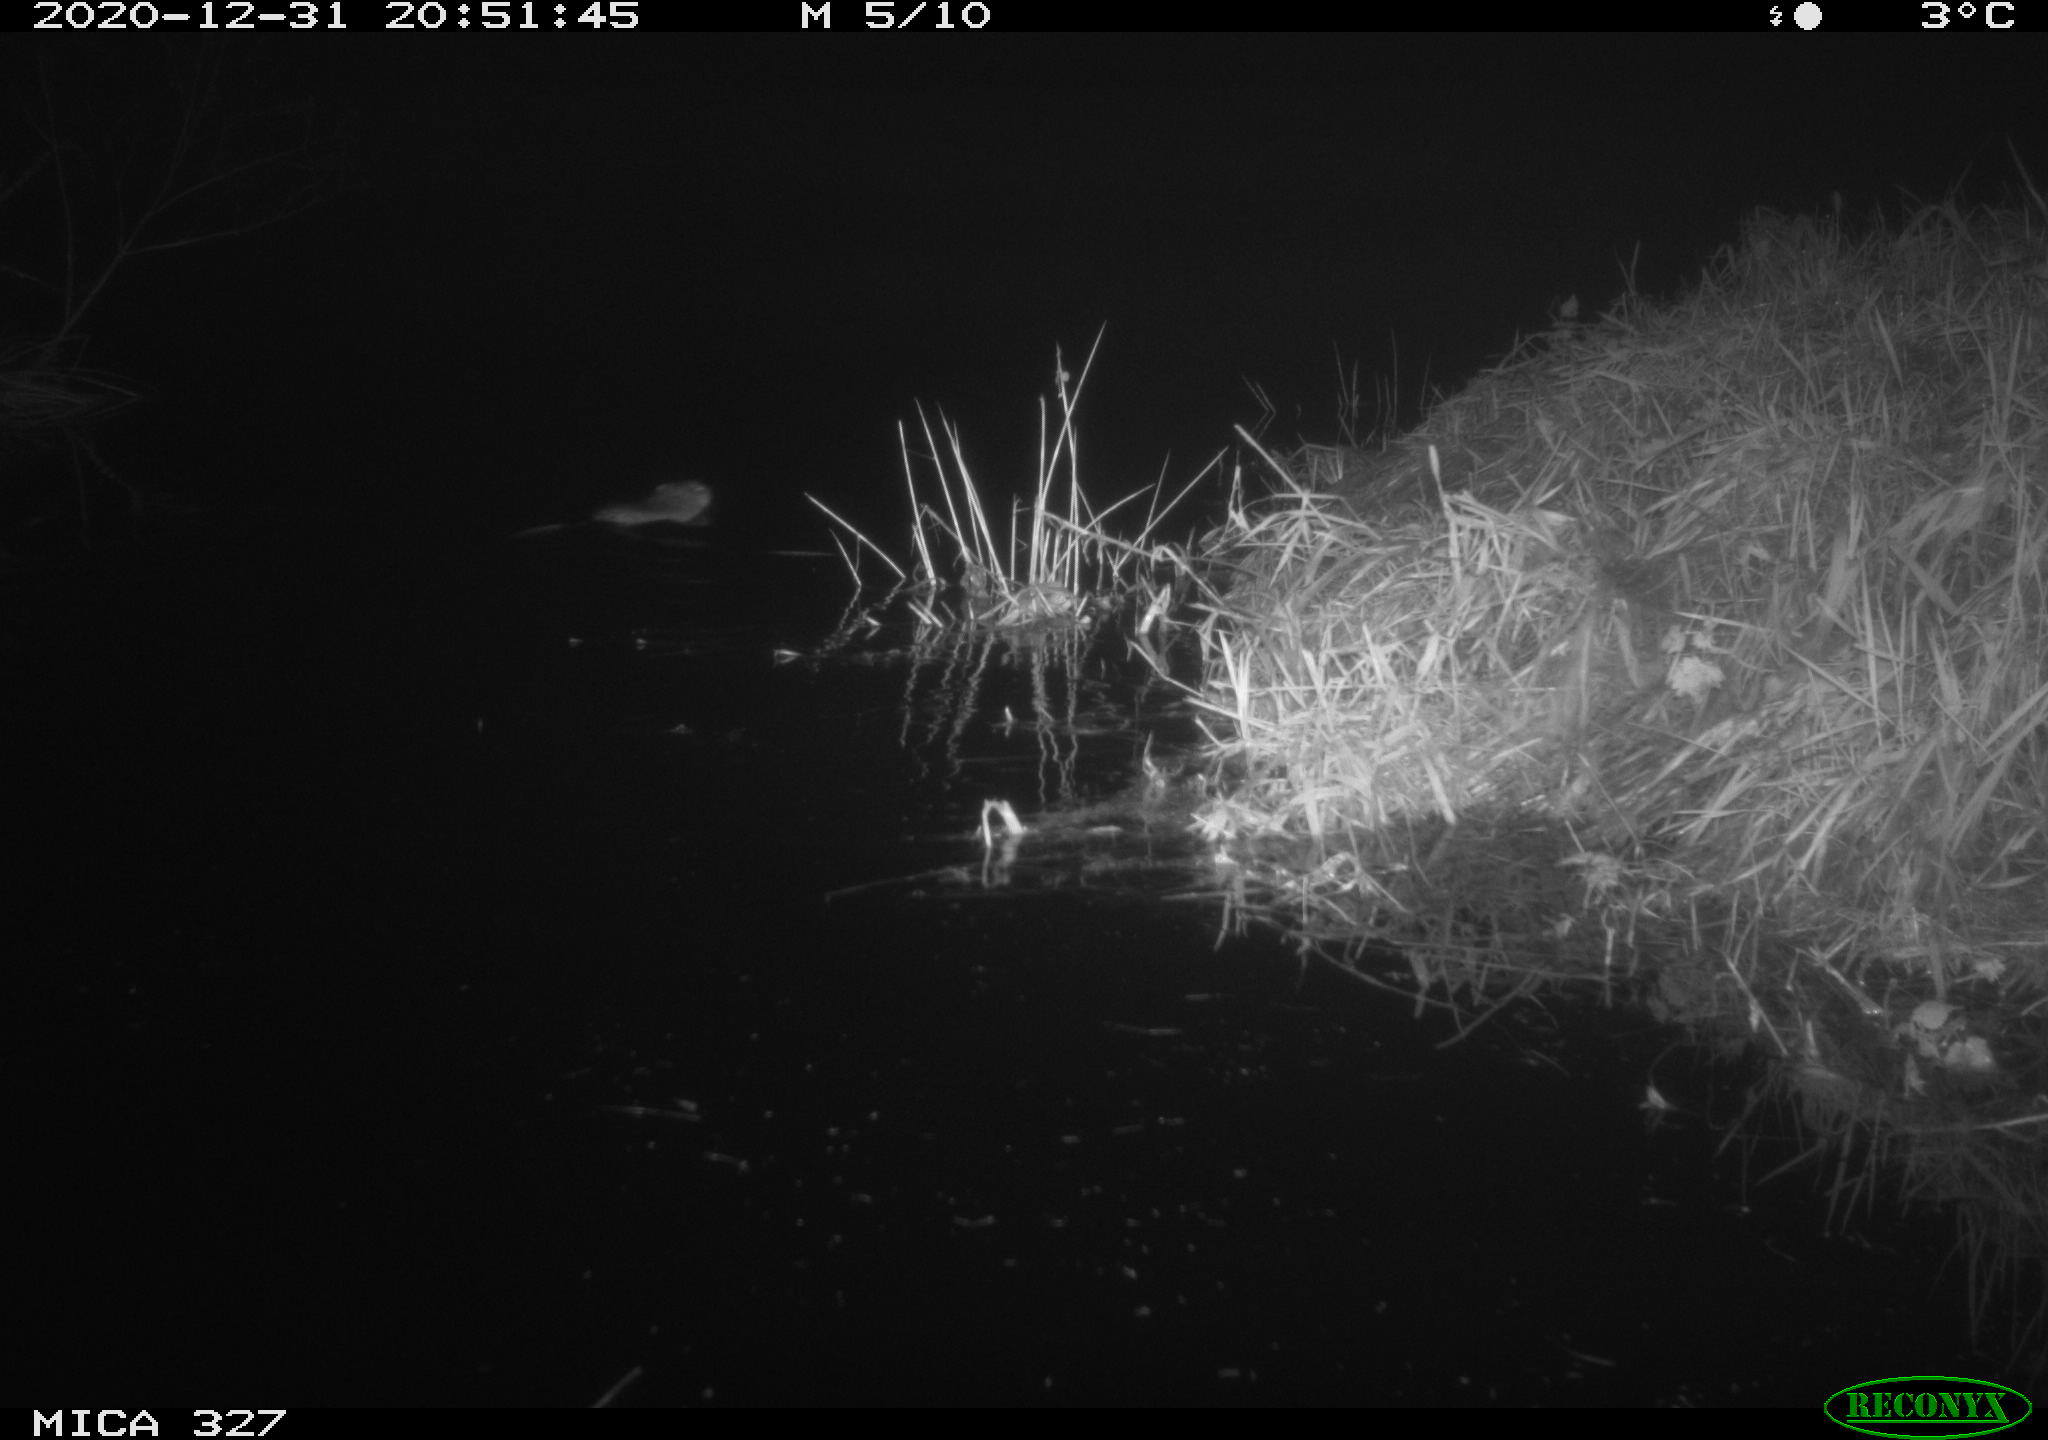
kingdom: Animalia
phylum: Chordata
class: Mammalia
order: Rodentia
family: Cricetidae
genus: Ondatra
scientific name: Ondatra zibethicus
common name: Muskrat
